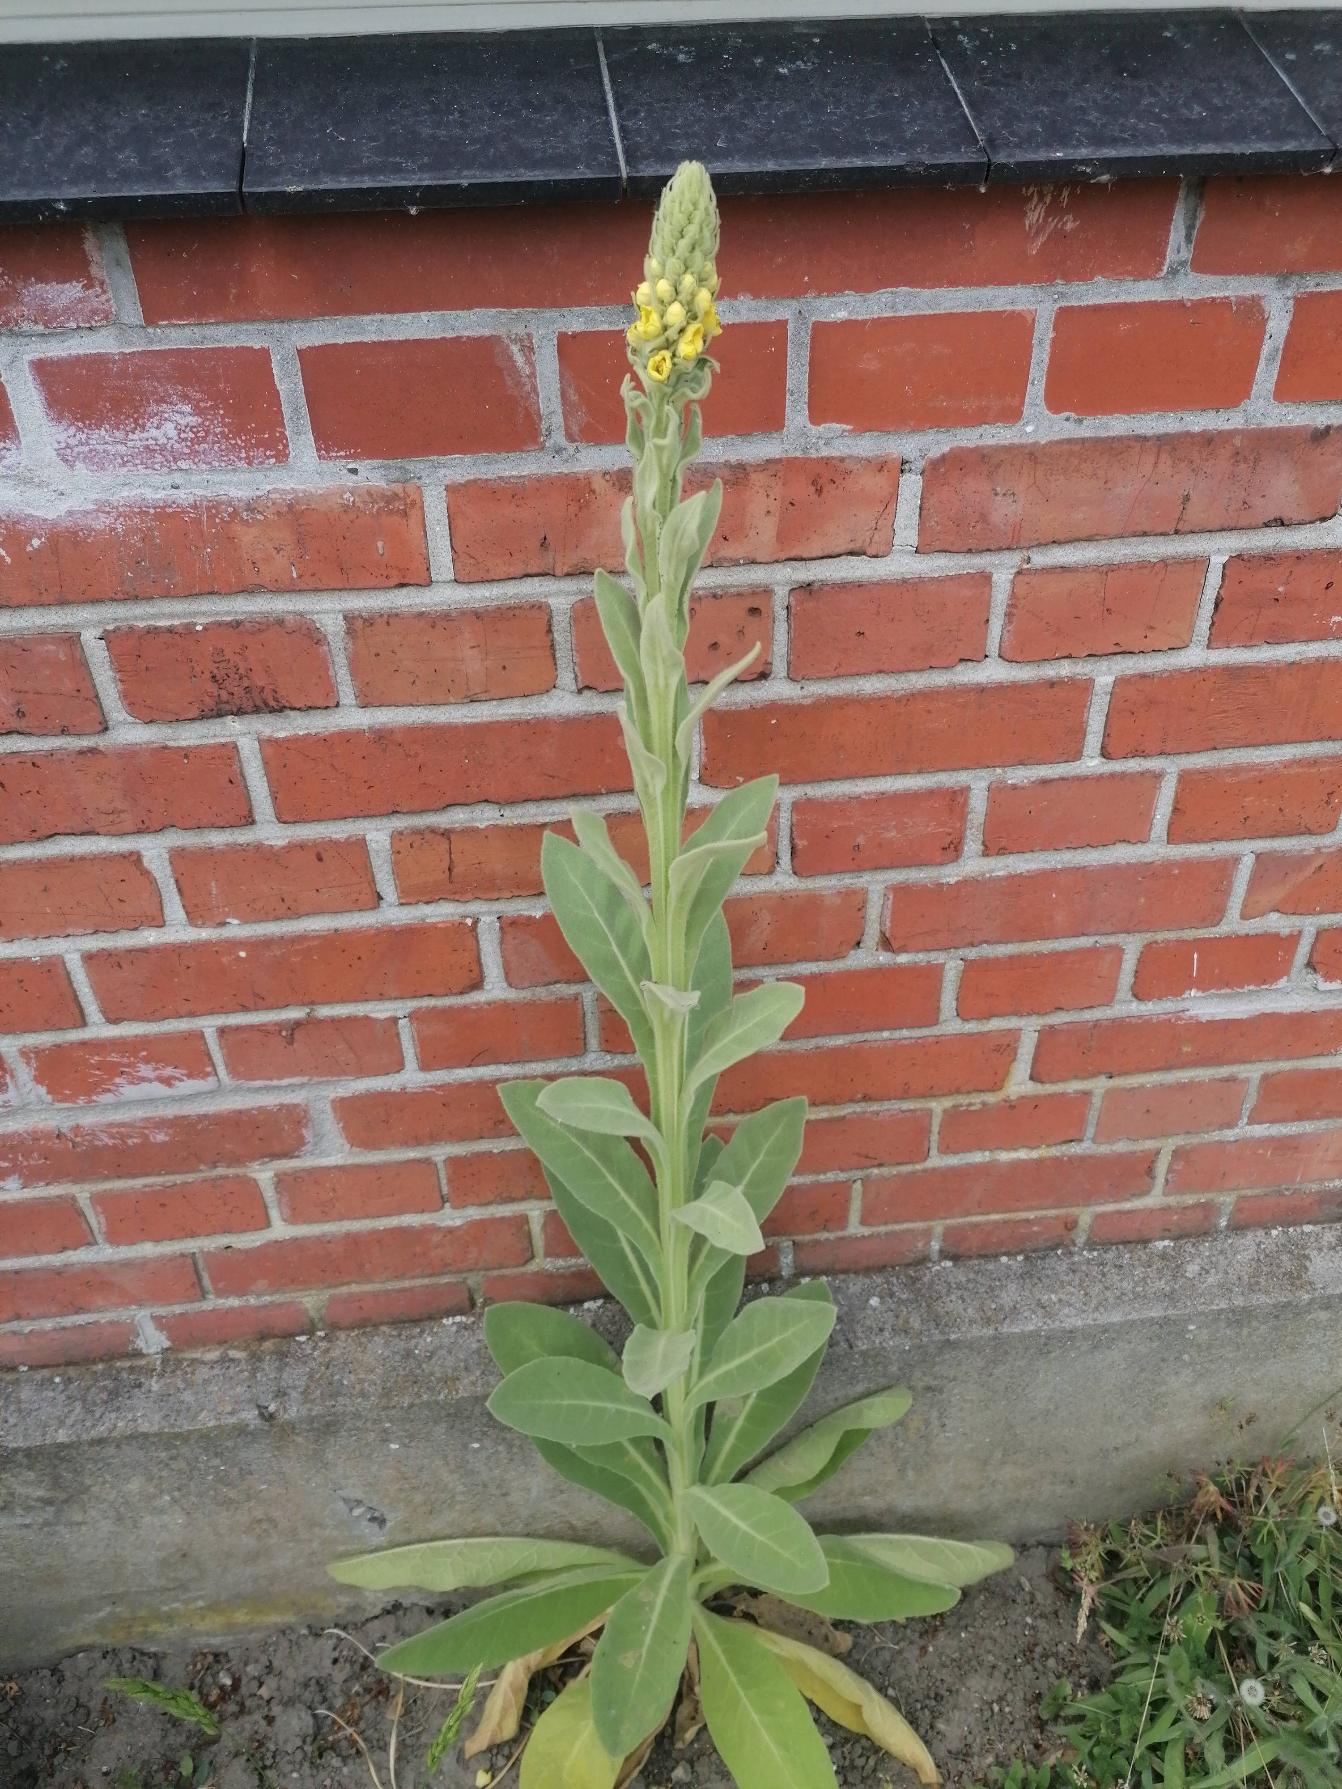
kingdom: Plantae
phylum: Tracheophyta
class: Magnoliopsida
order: Lamiales
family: Scrophulariaceae
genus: Verbascum
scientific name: Verbascum thapsus
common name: Filtbladet kongelys
